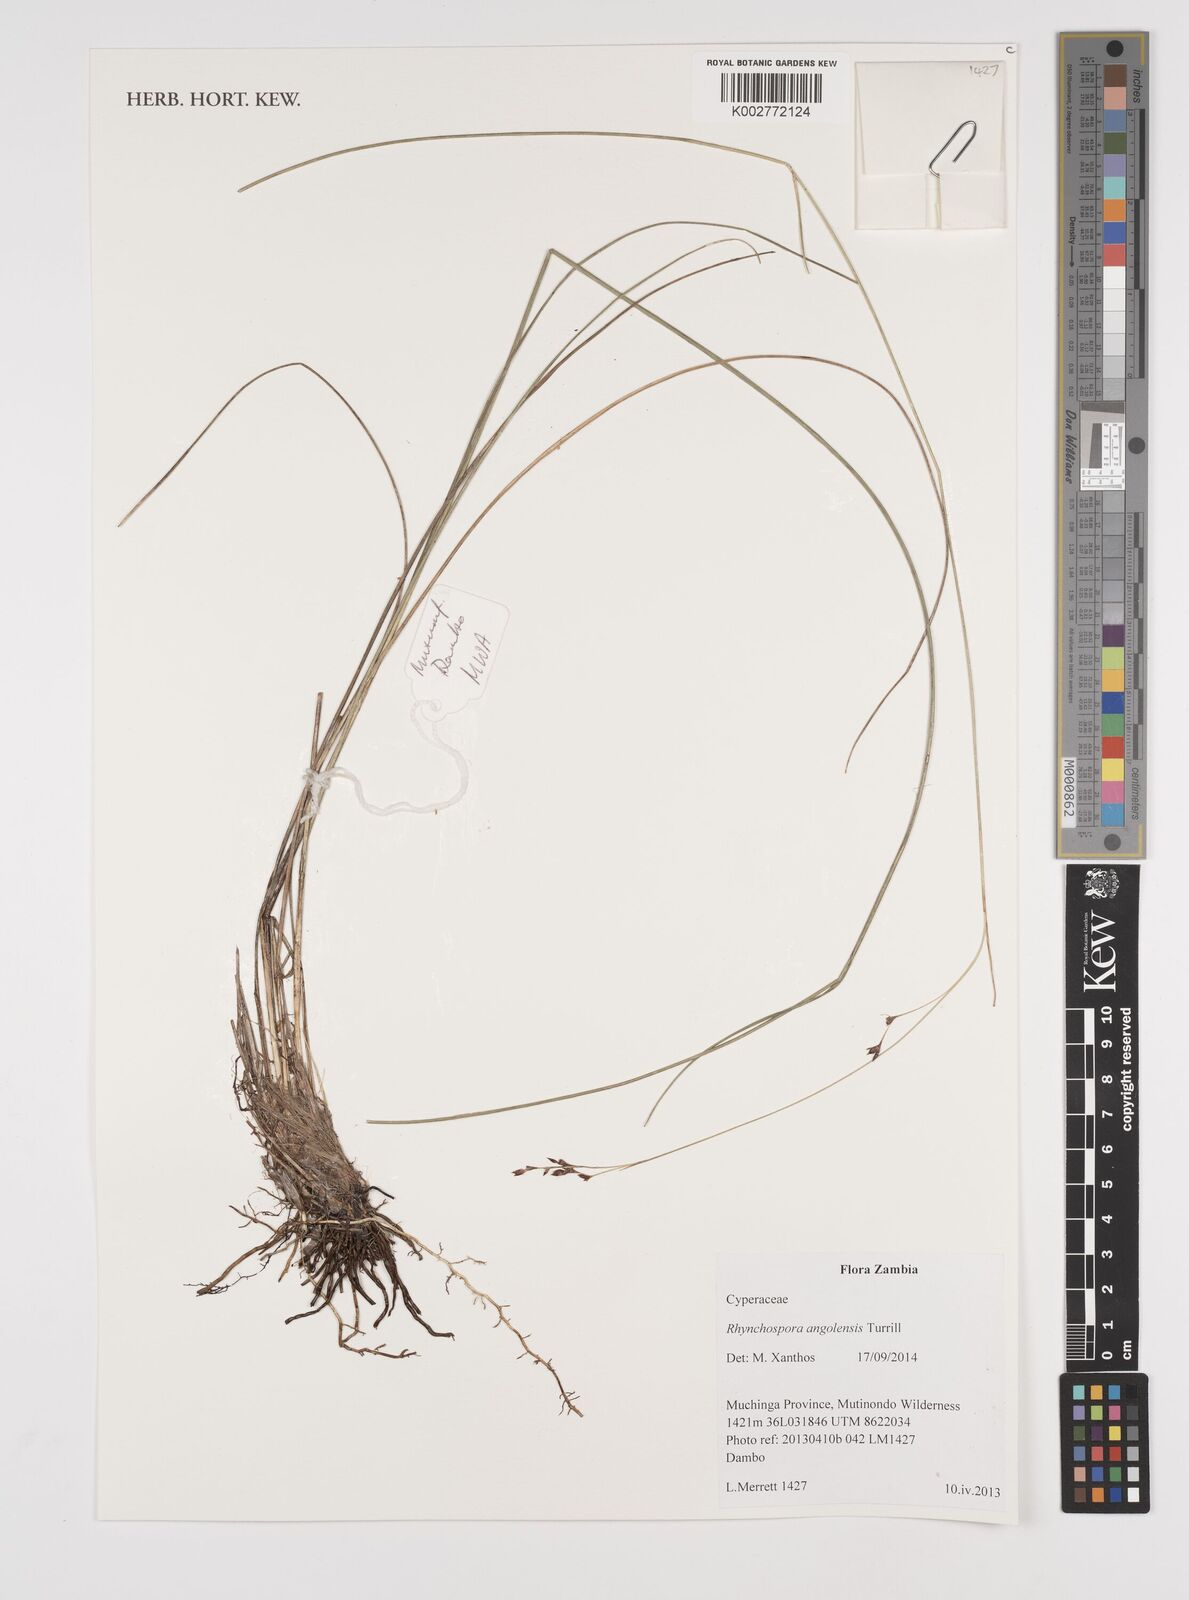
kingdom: Plantae
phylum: Tracheophyta
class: Liliopsida
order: Poales
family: Cyperaceae
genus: Rhynchospora
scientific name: Rhynchospora angolensis
